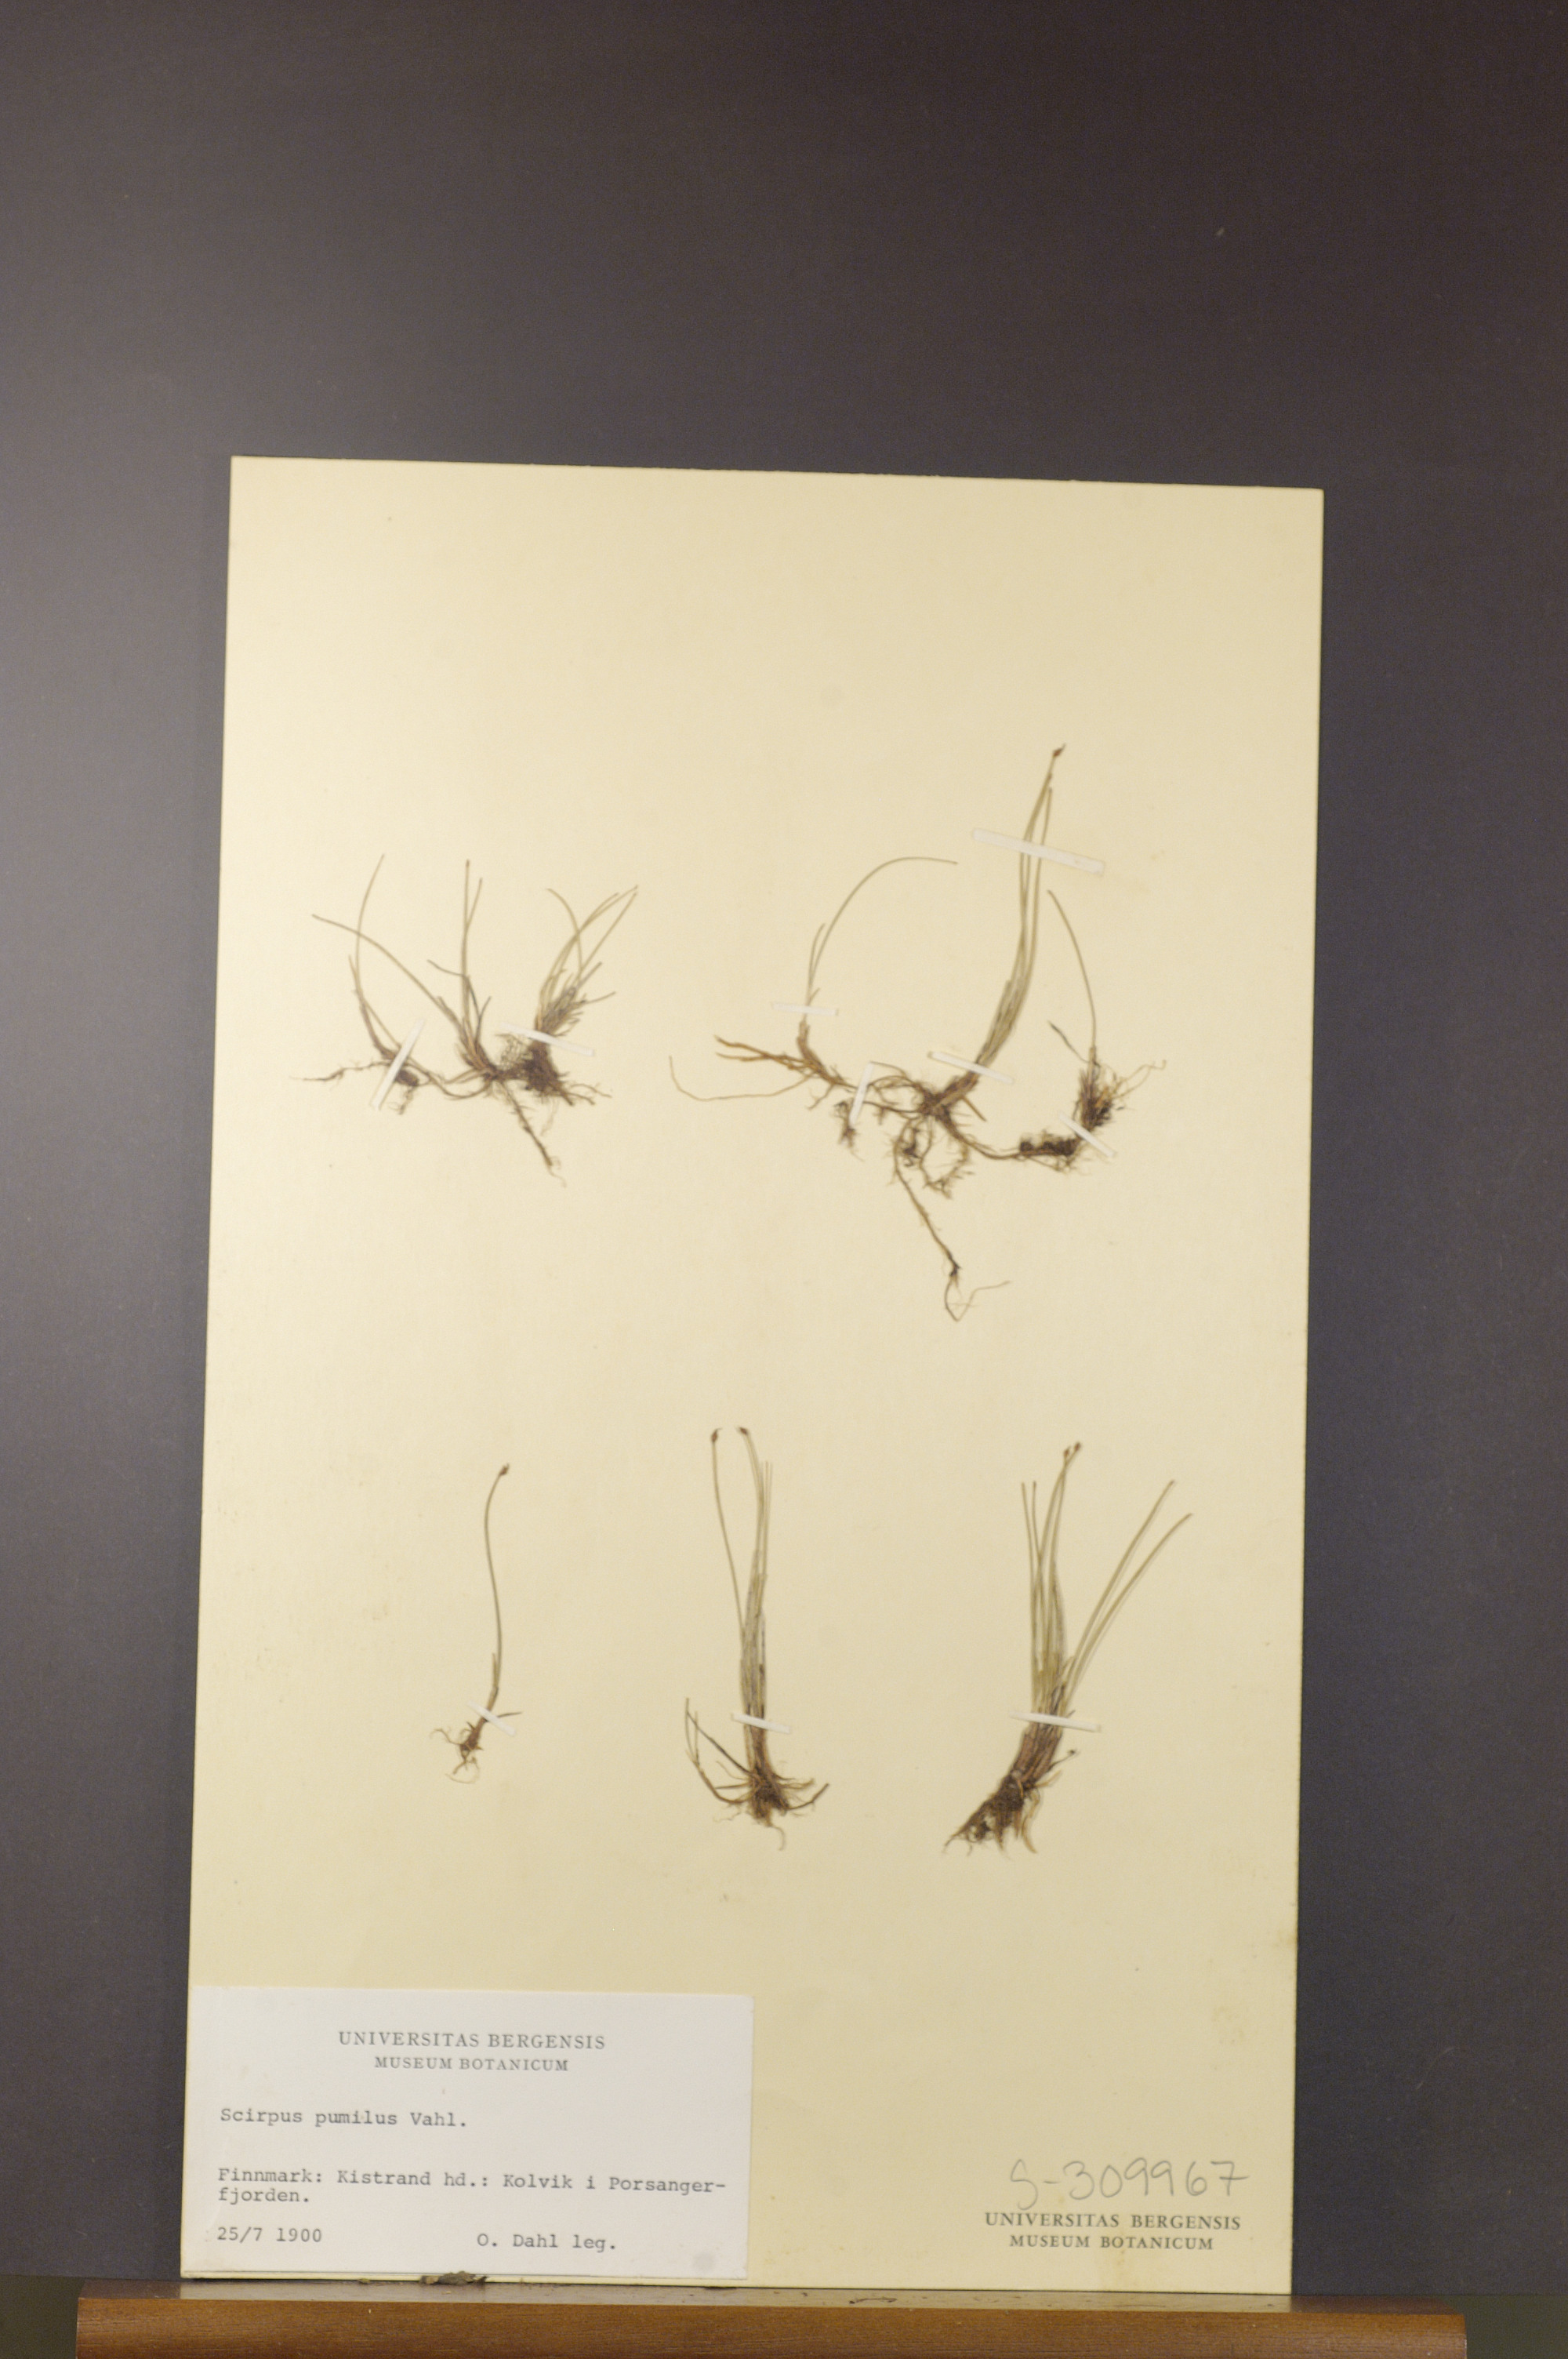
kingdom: Plantae
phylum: Tracheophyta
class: Liliopsida
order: Poales
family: Cyperaceae
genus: Trichophorum
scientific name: Trichophorum pumilum
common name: Rolland's bulrush
